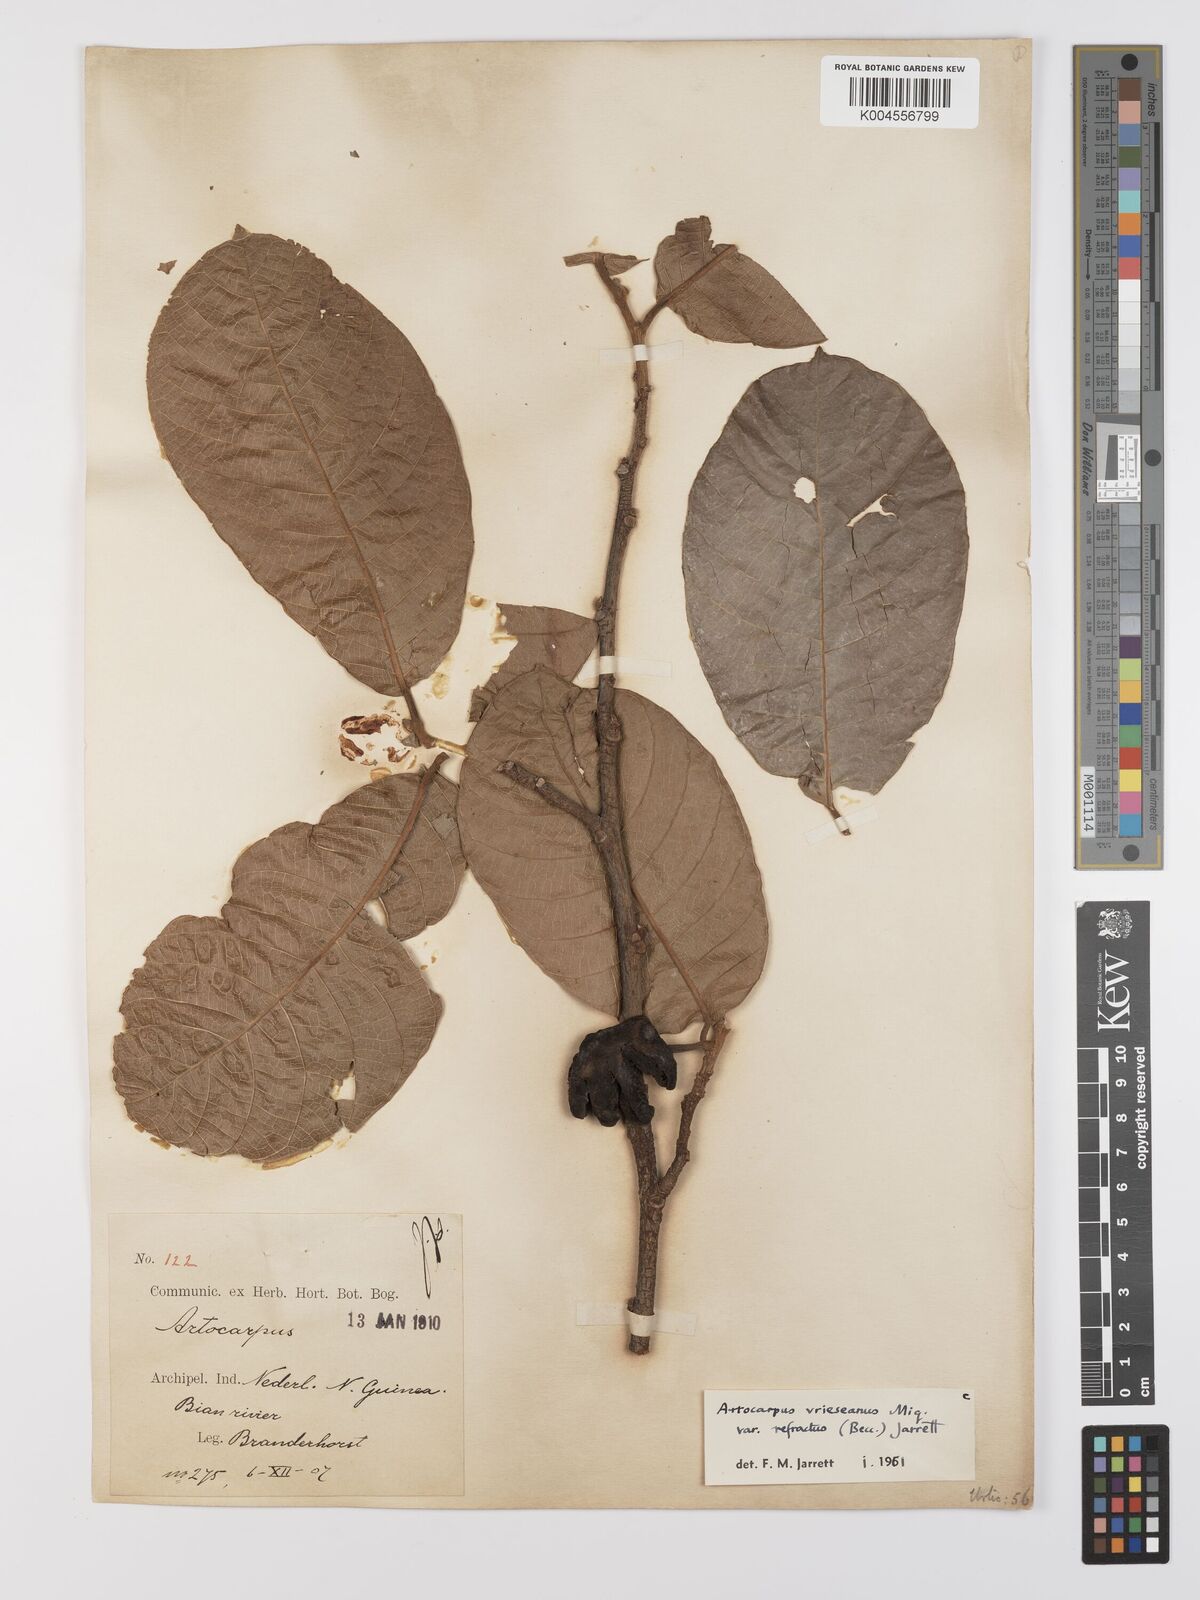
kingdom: Plantae
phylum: Tracheophyta
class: Magnoliopsida
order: Rosales
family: Moraceae
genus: Artocarpus
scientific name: Artocarpus vrieseanus
